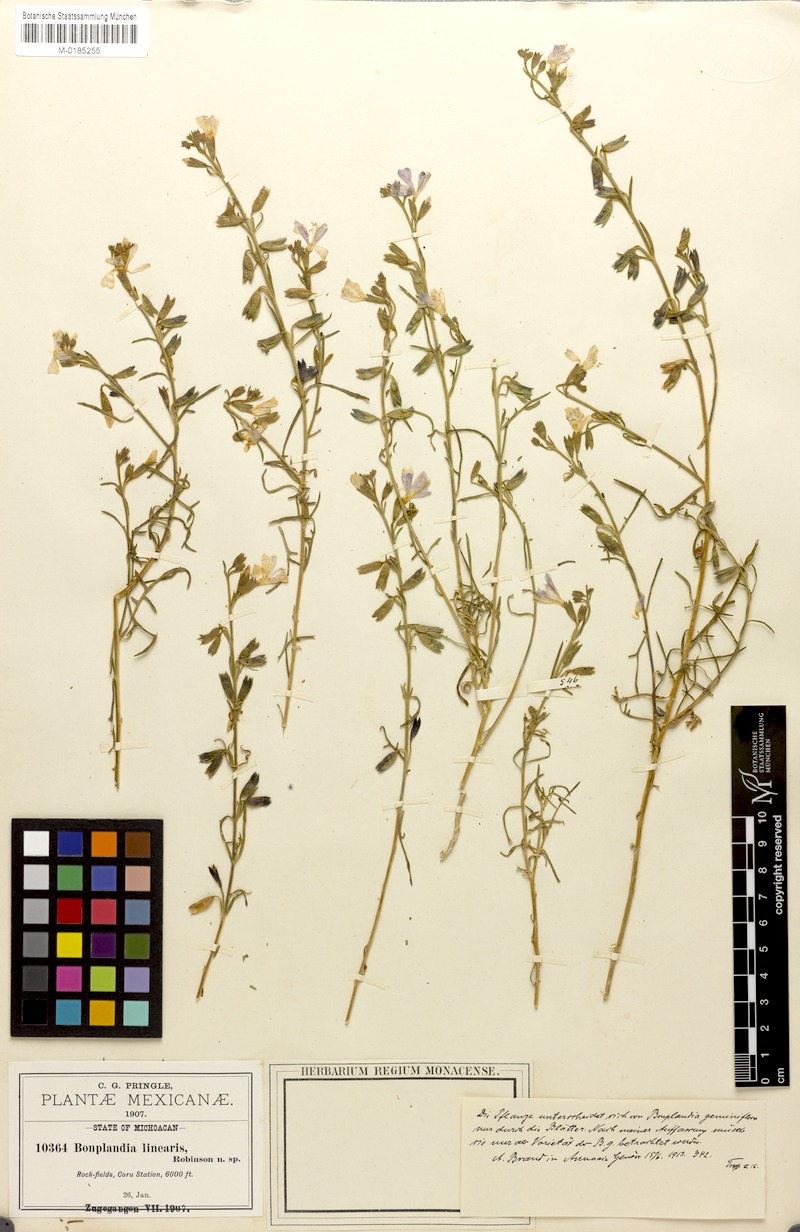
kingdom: Plantae
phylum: Tracheophyta
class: Magnoliopsida
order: Ericales
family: Polemoniaceae
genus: Bonplandia
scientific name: Bonplandia linearis
